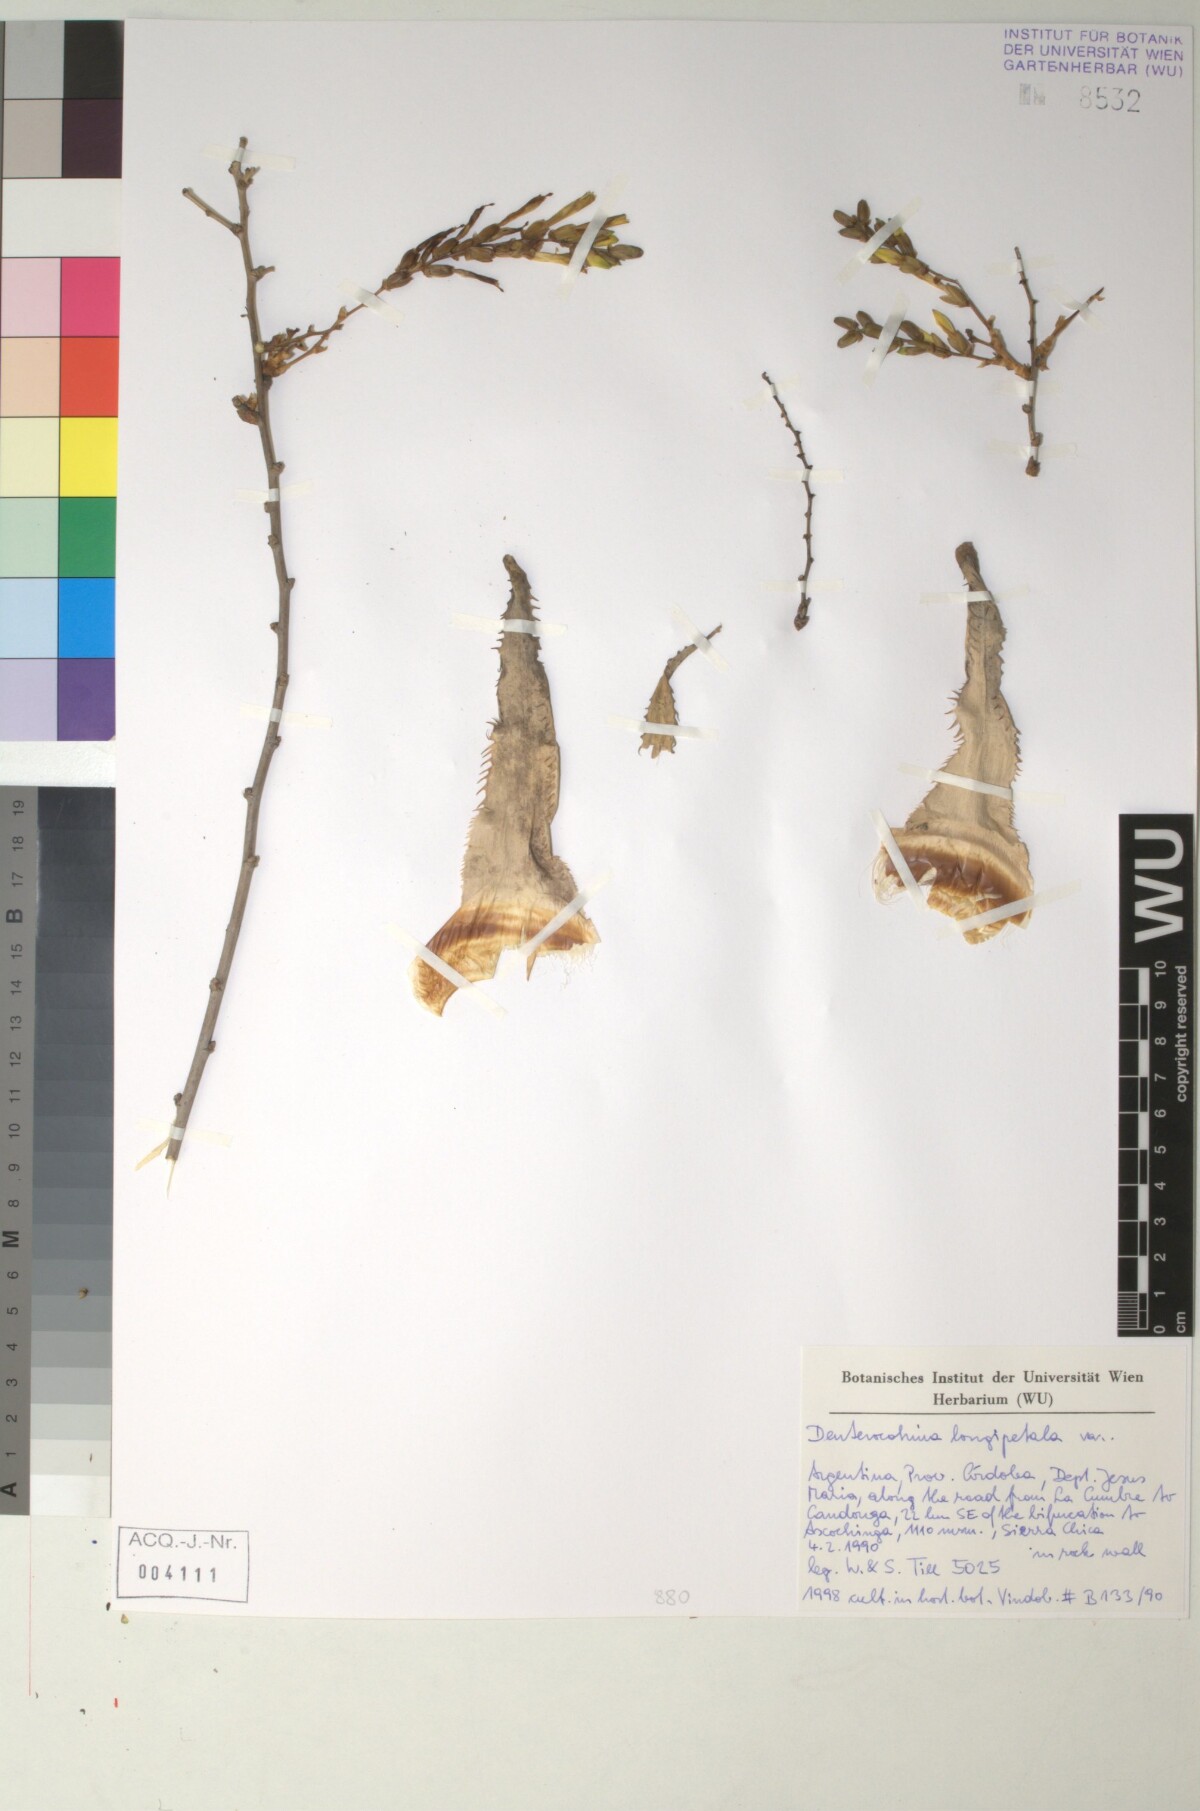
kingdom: Plantae
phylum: Tracheophyta
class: Liliopsida
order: Poales
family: Bromeliaceae
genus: Deuterocohnia
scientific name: Deuterocohnia longipetala
